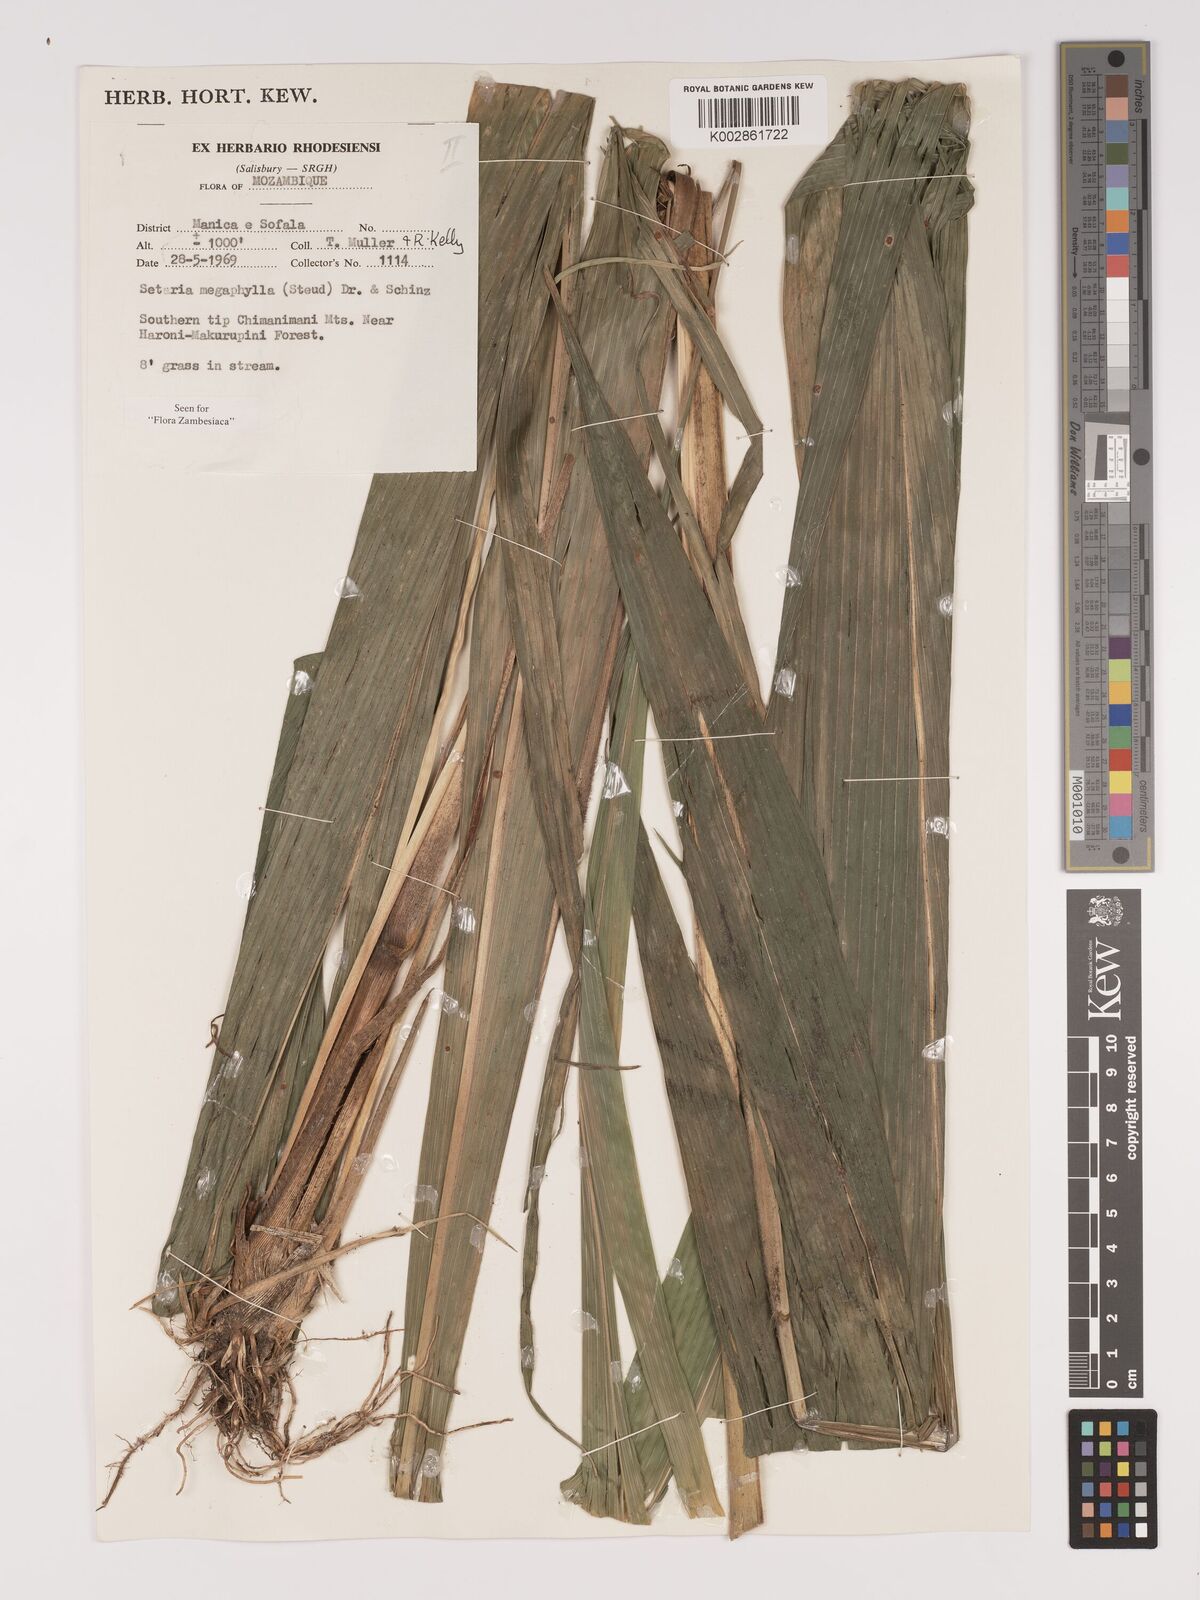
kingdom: Plantae
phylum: Tracheophyta
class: Liliopsida
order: Poales
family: Poaceae
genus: Setaria
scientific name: Setaria megaphylla
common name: Bigleaf bristlegrass
